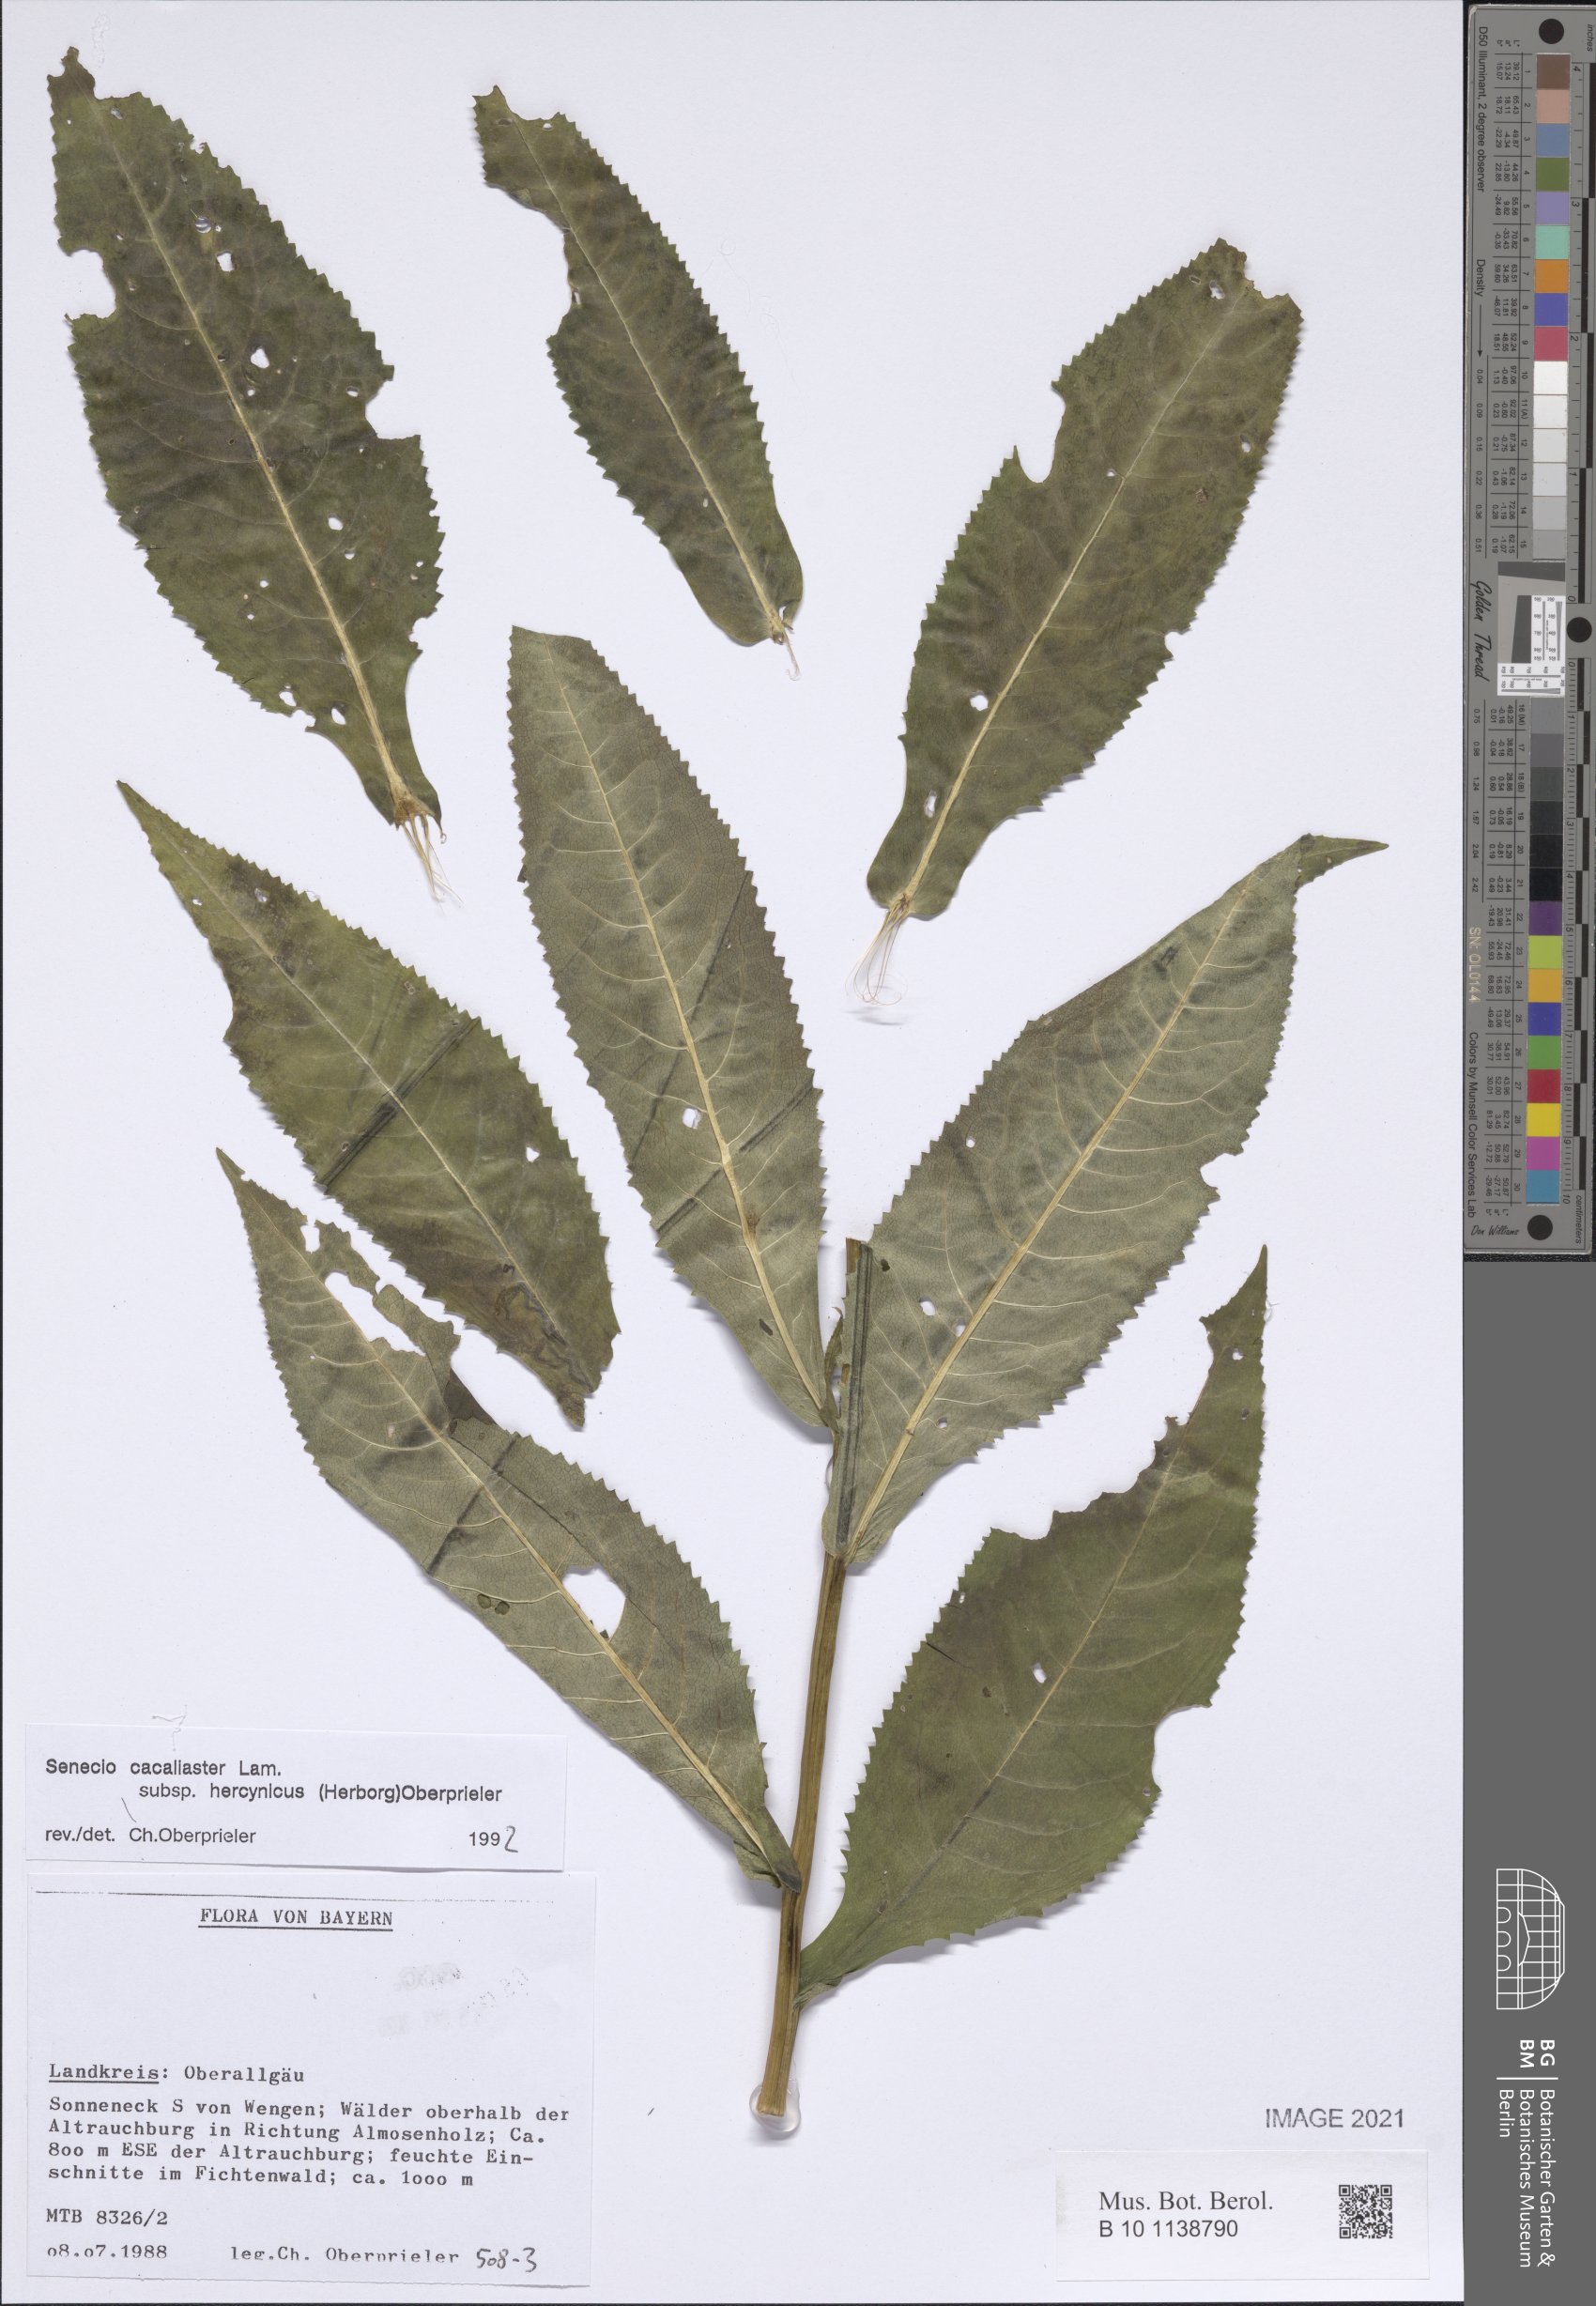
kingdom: Plantae
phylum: Tracheophyta
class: Magnoliopsida
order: Asterales
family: Asteraceae
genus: Senecio
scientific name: Senecio hercynicus
